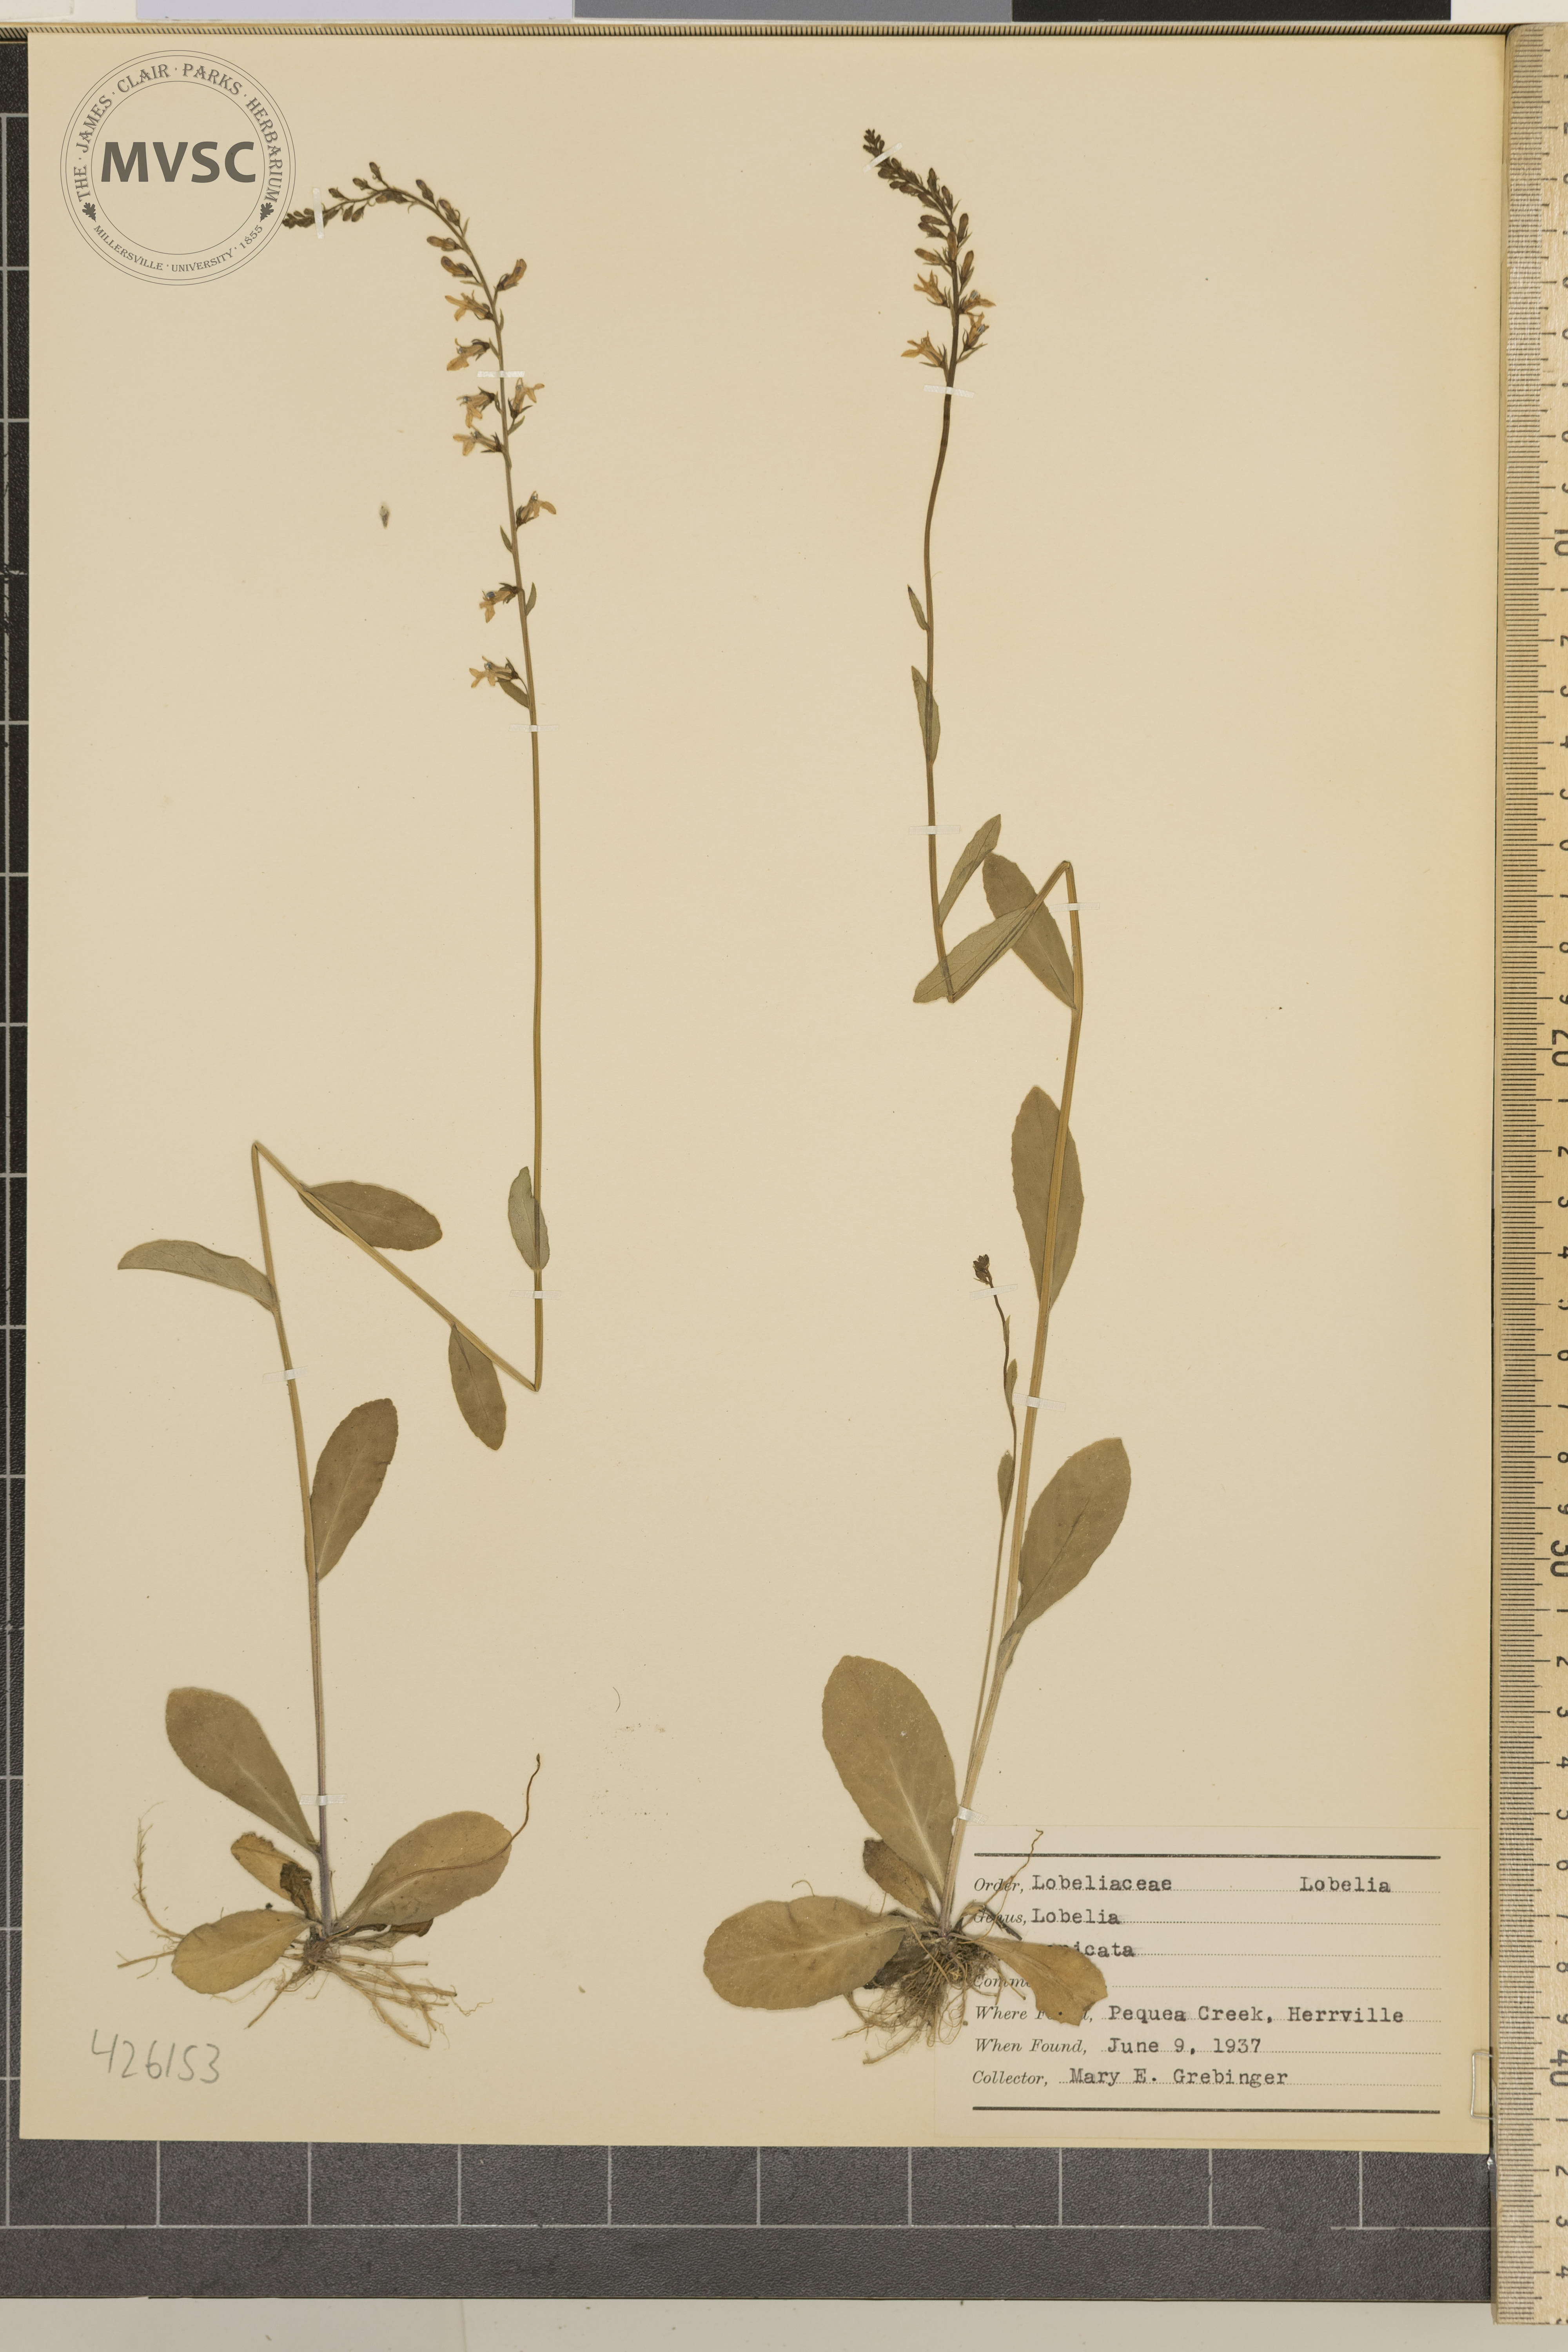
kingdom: Plantae
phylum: Tracheophyta
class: Magnoliopsida
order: Asterales
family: Campanulaceae
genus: Lobelia
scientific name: Lobelia spicata
